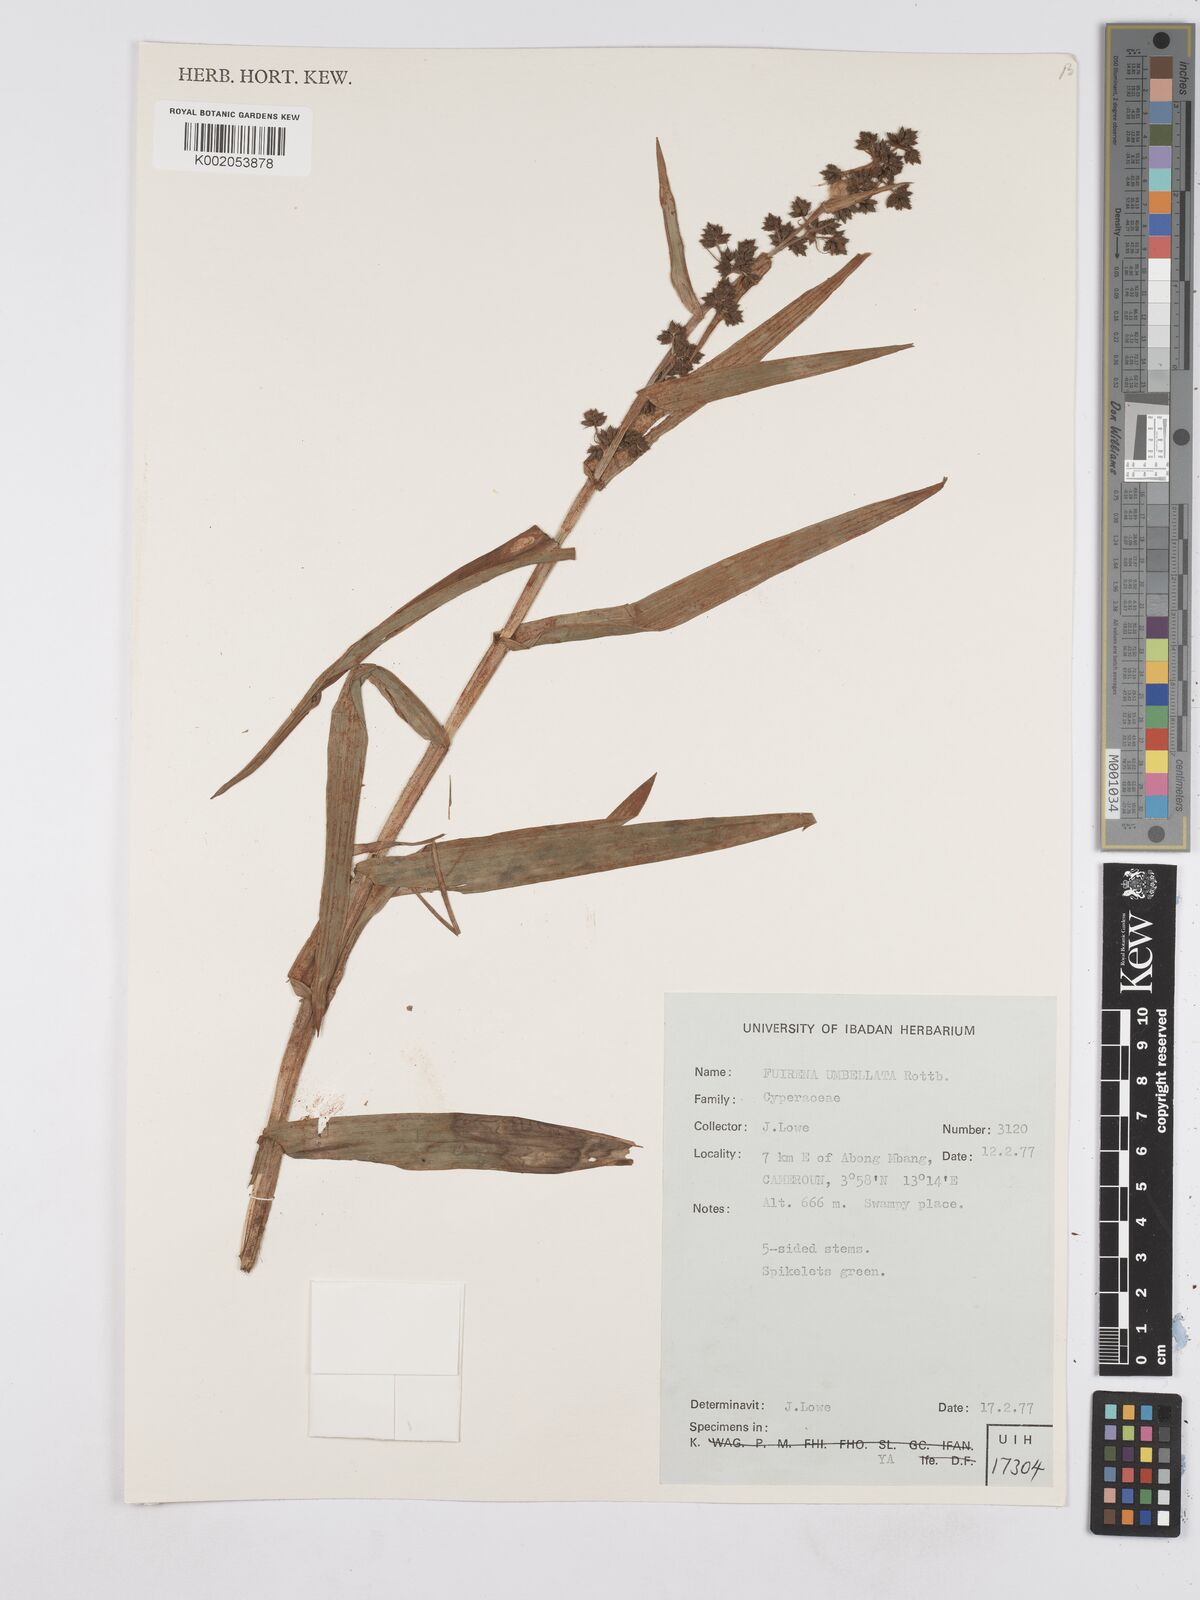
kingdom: Plantae
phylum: Tracheophyta
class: Liliopsida
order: Poales
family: Cyperaceae
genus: Fuirena
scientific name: Fuirena umbellata
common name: Yefen
